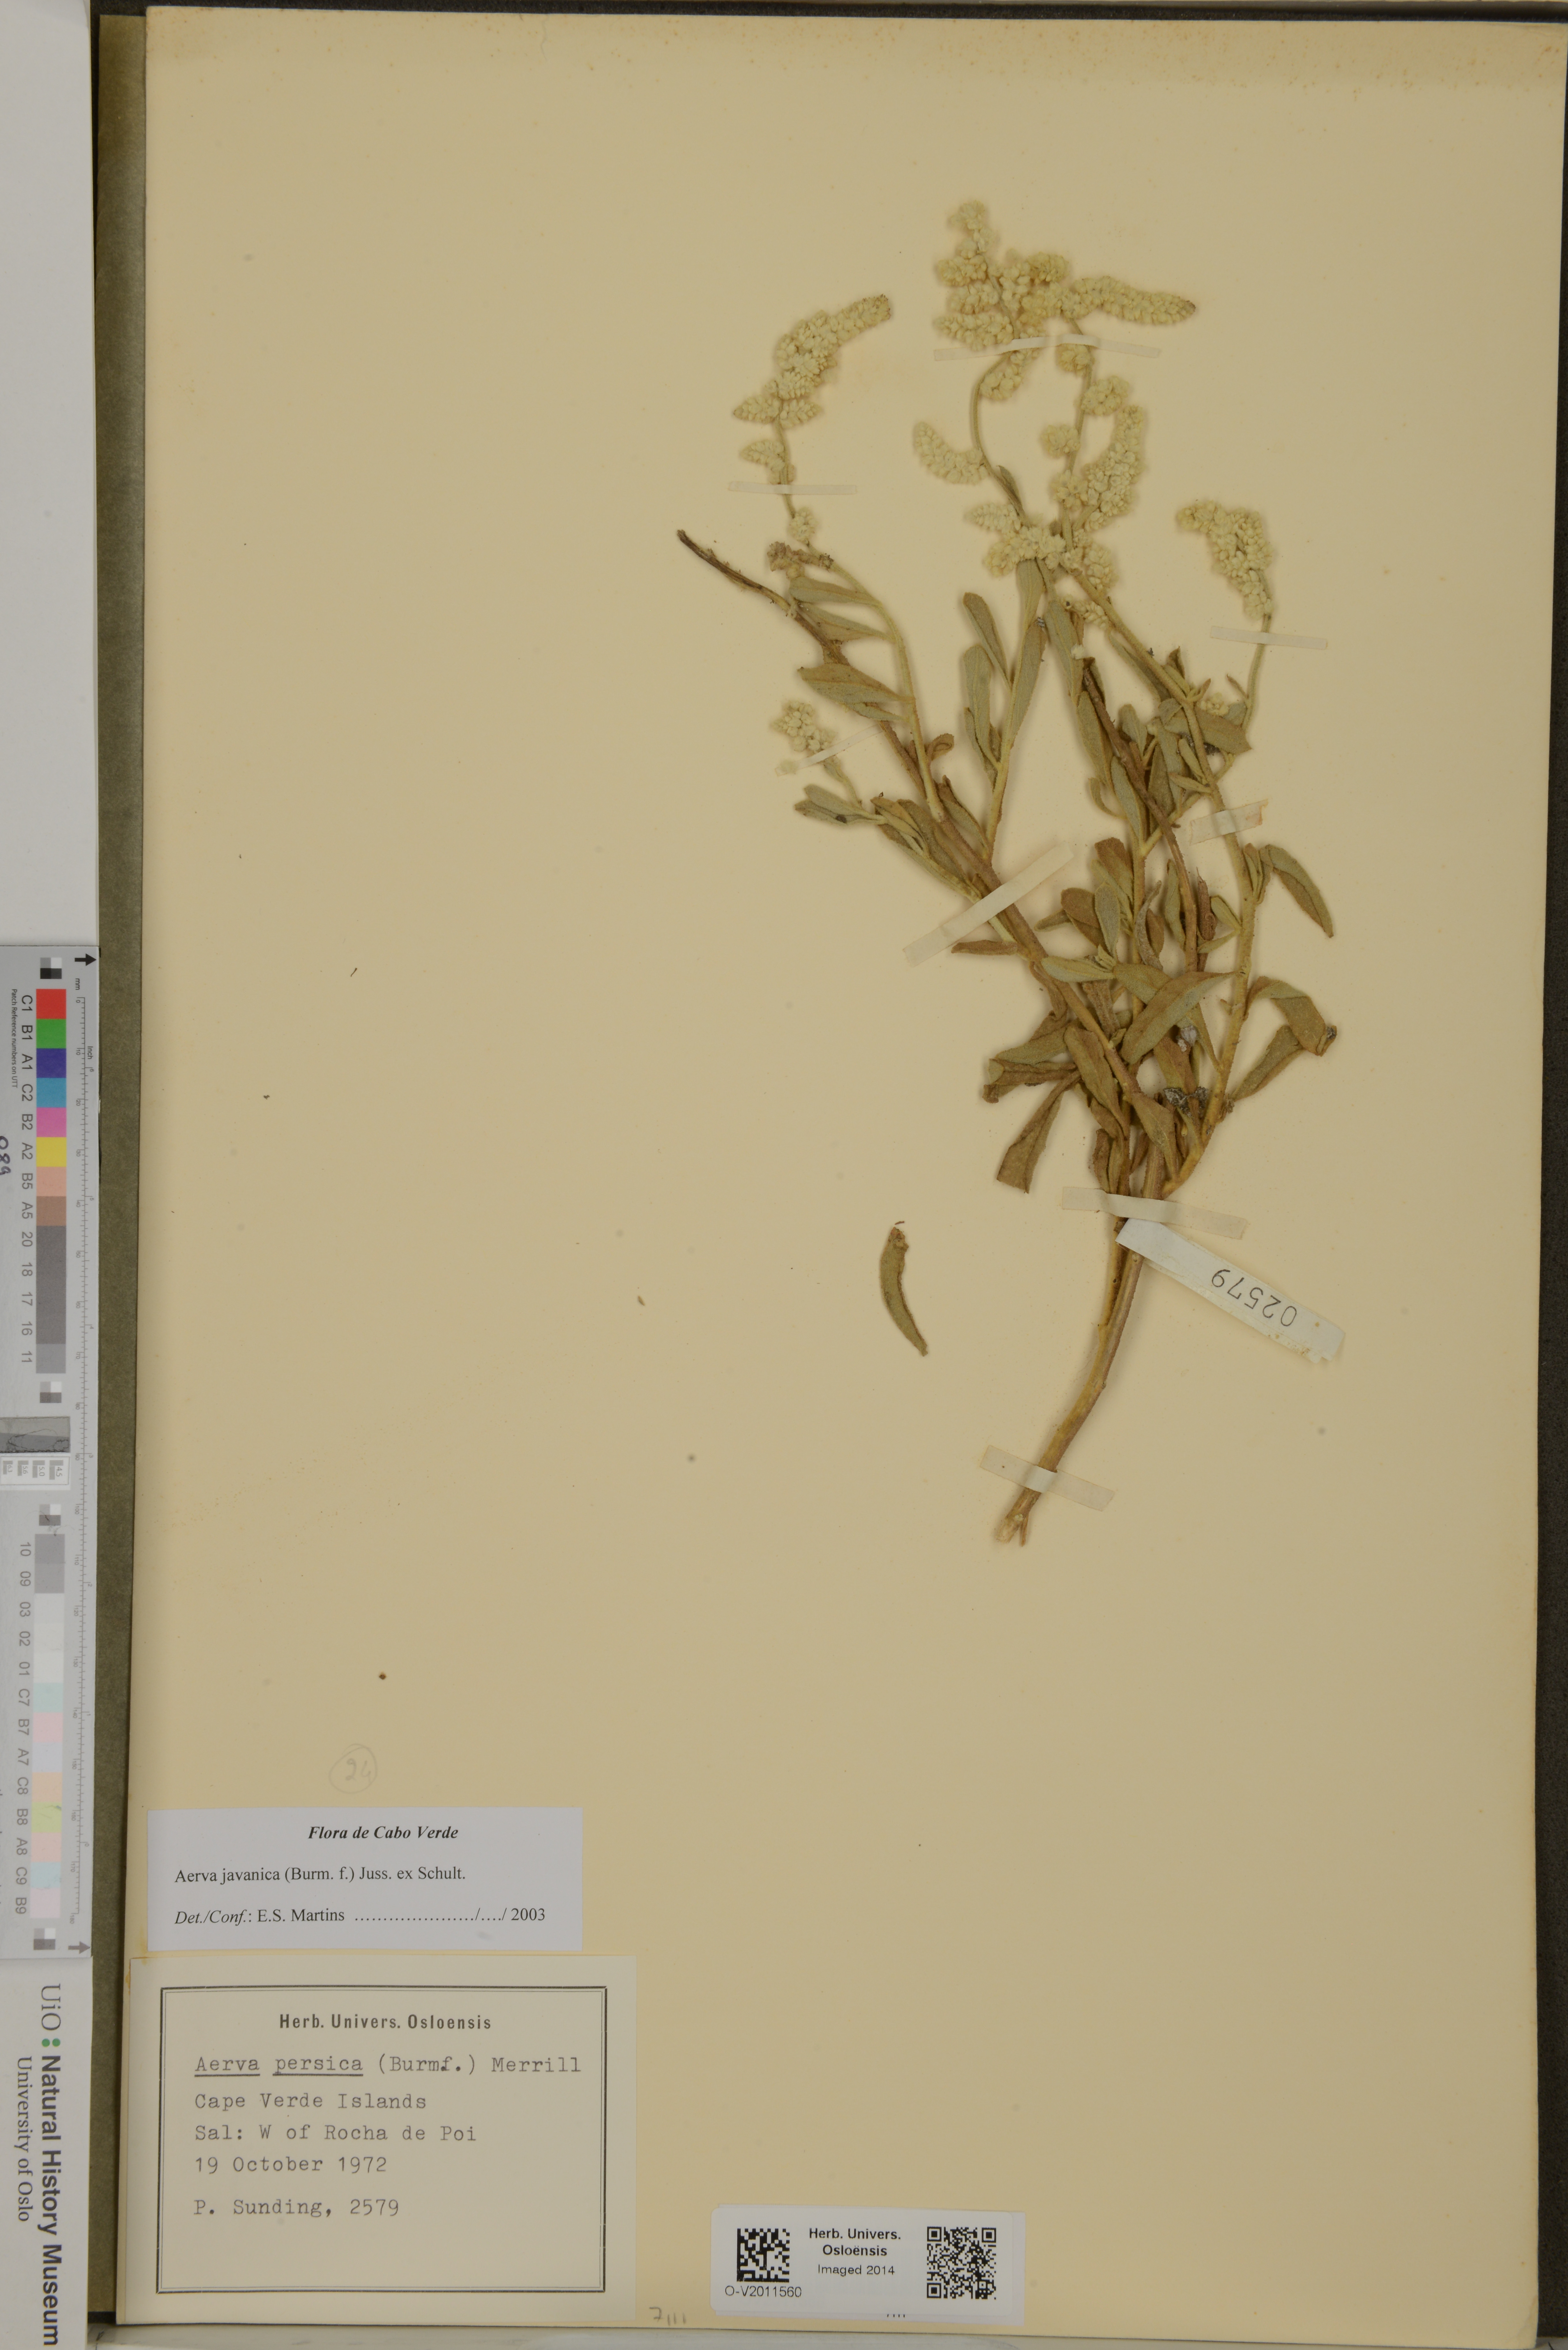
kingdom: Plantae
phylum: Tracheophyta
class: Magnoliopsida
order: Caryophyllales
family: Amaranthaceae
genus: Aerva
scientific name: Aerva javanica
